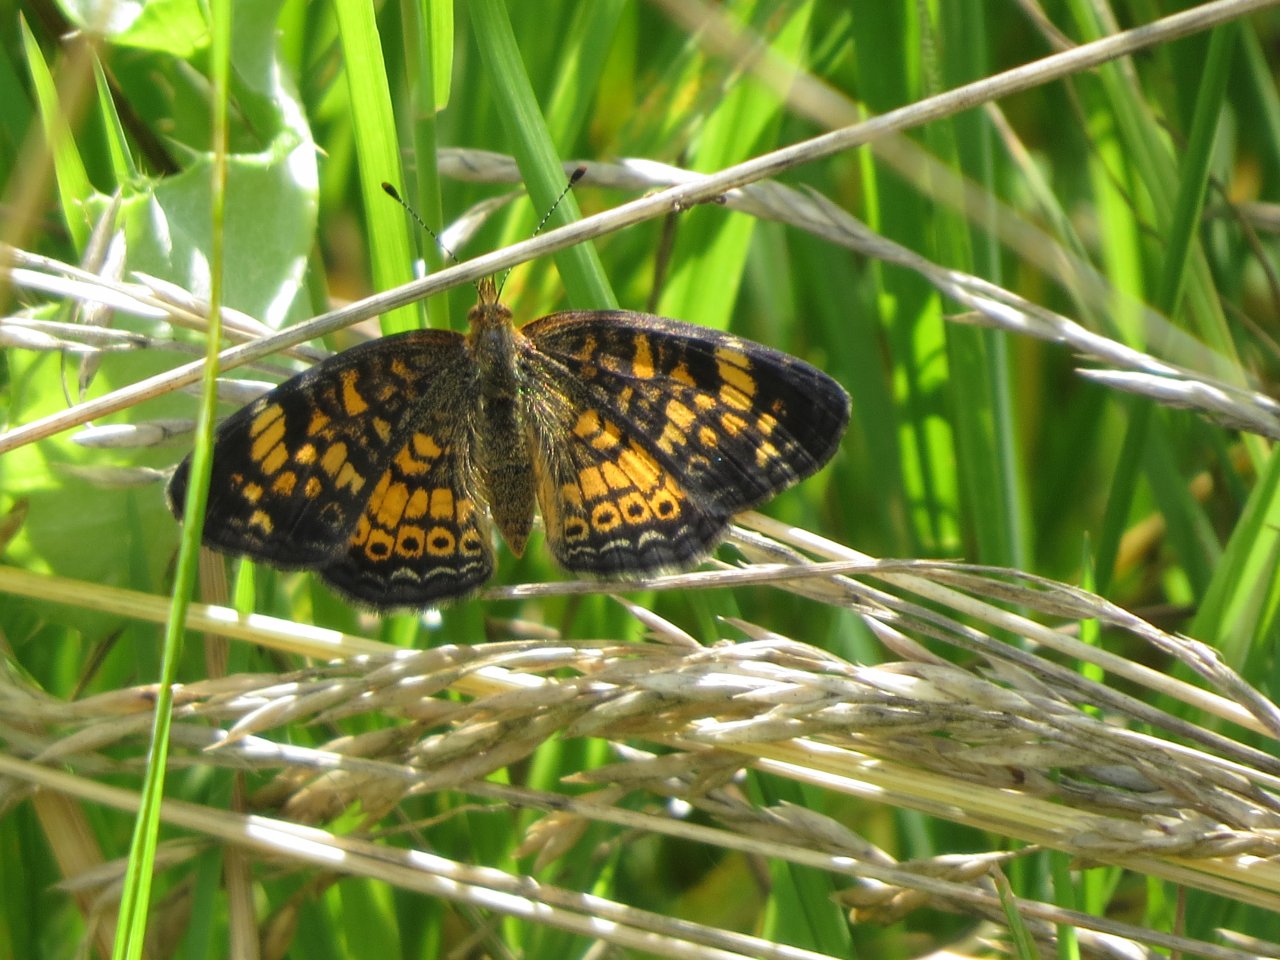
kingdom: Animalia
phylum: Arthropoda
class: Insecta
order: Lepidoptera
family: Nymphalidae
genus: Phyciodes
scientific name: Phyciodes tharos
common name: Pearl Crescent
